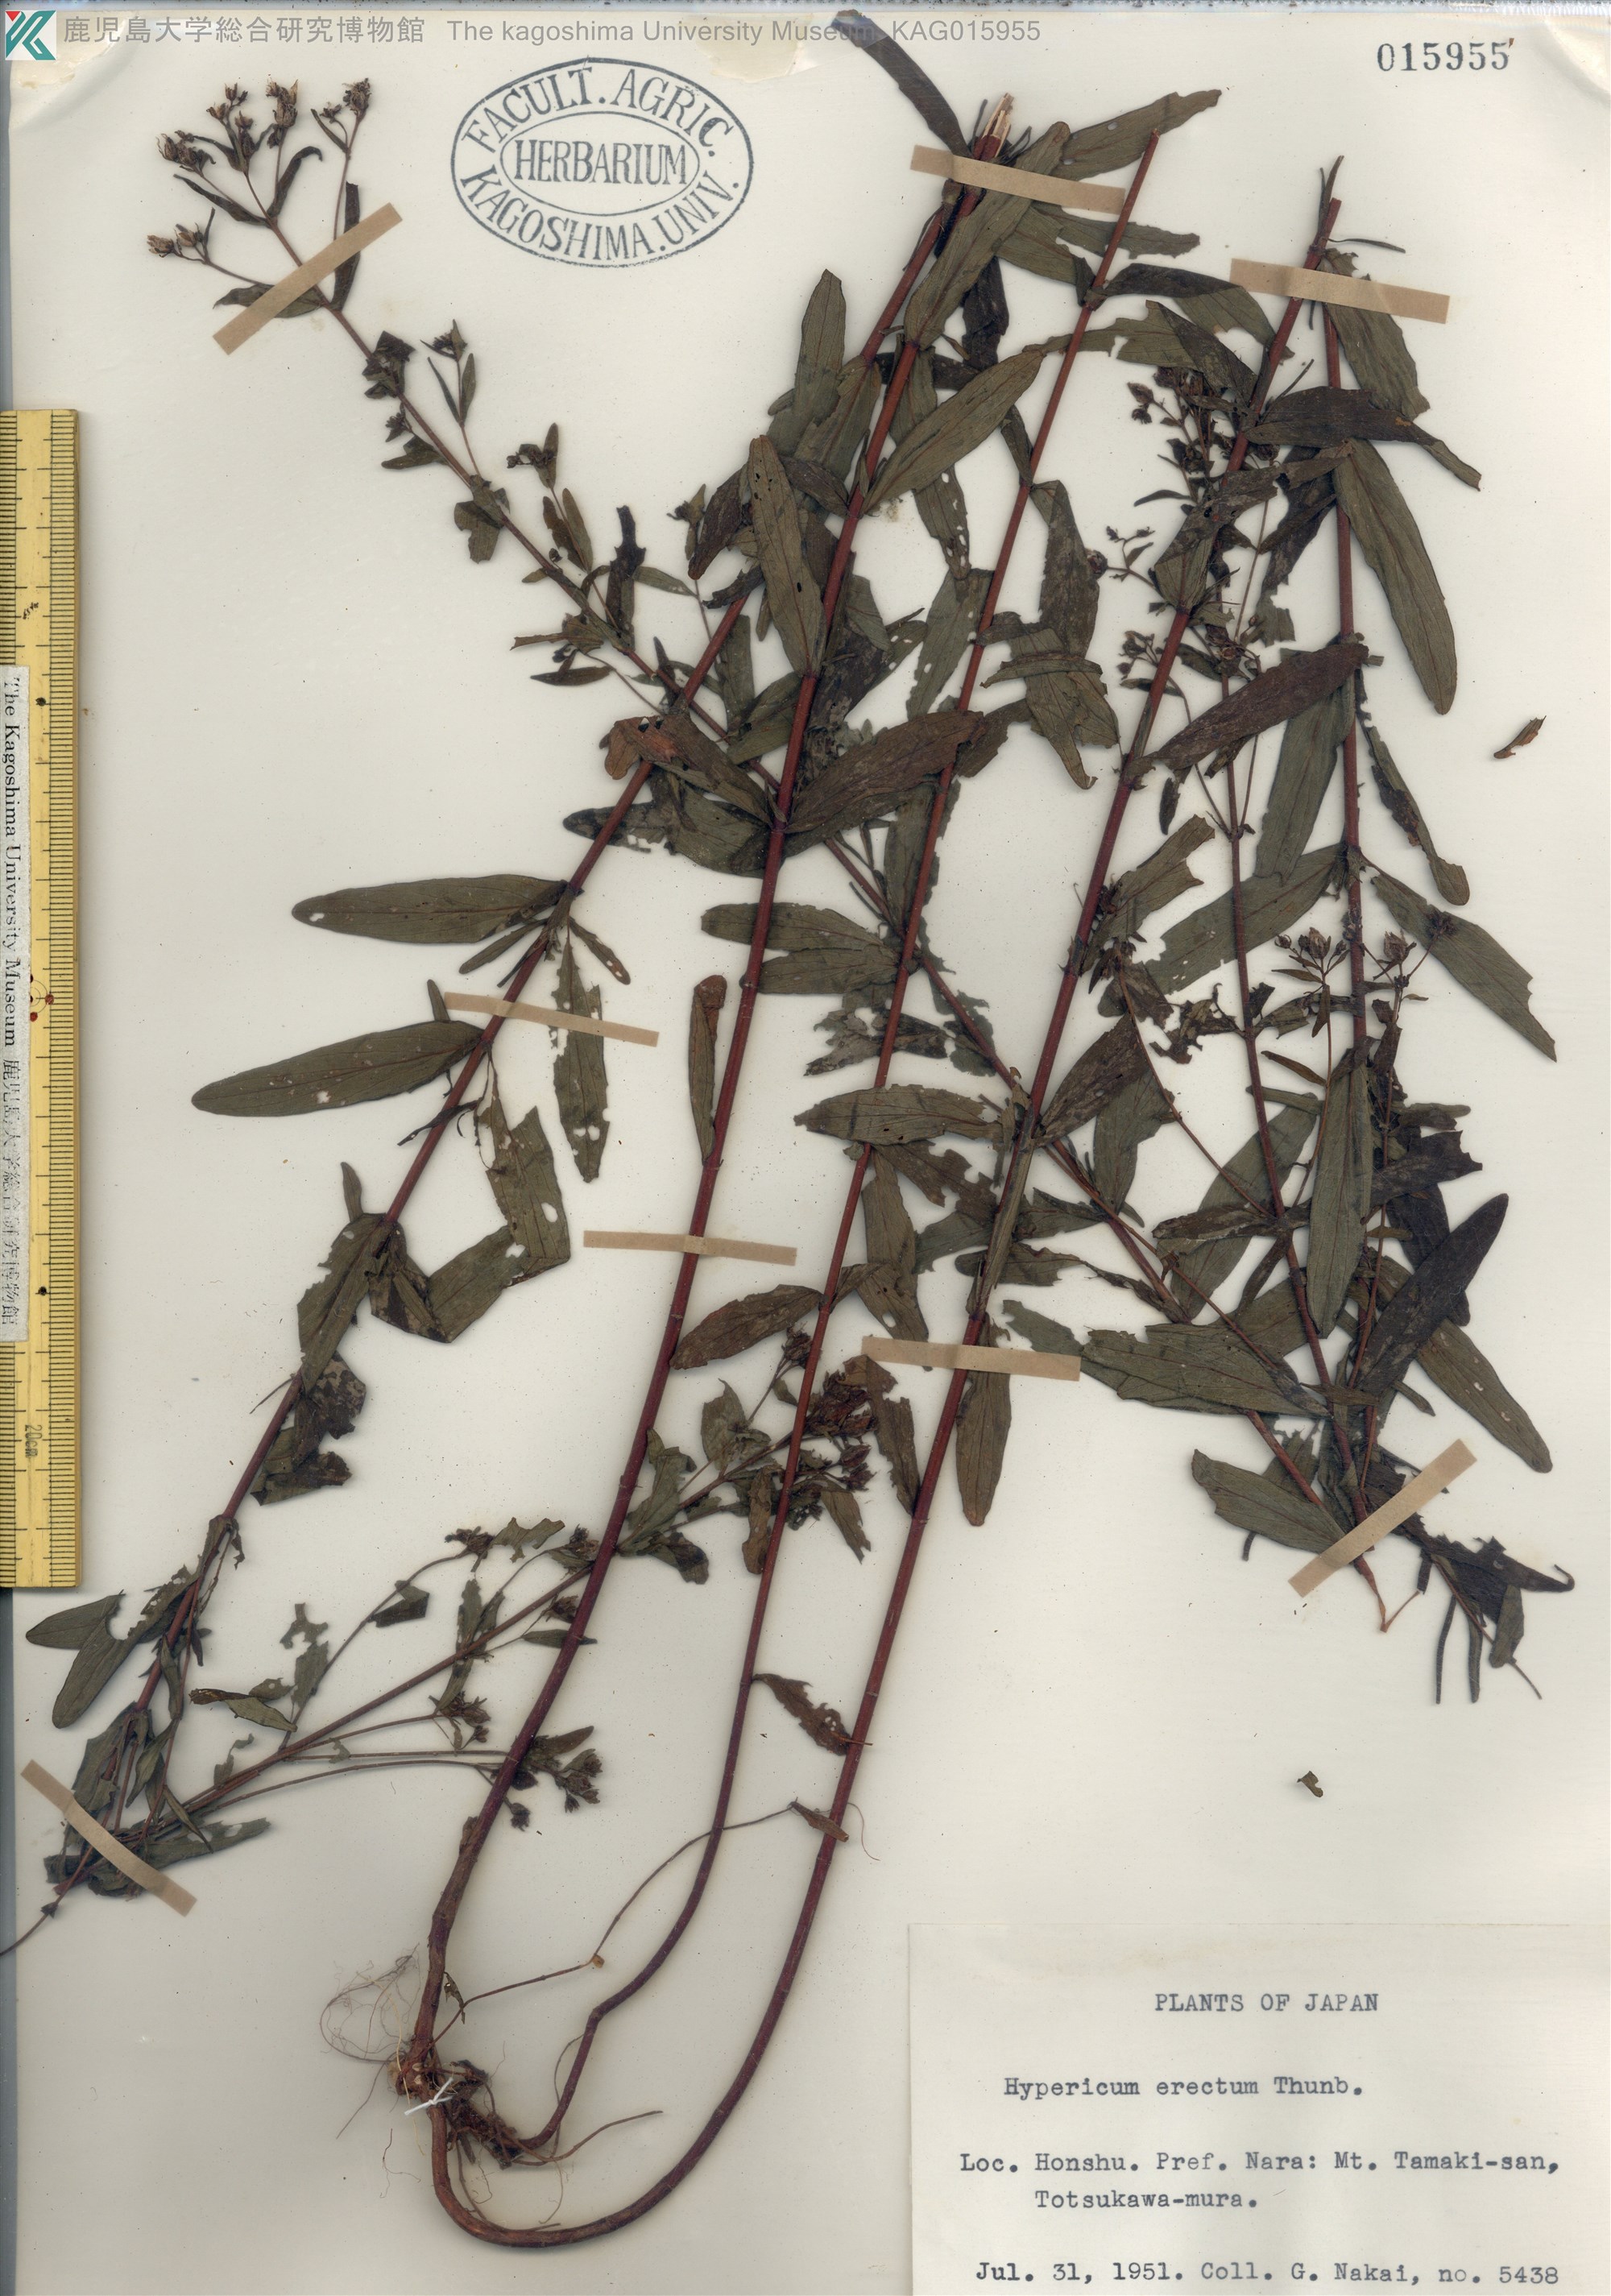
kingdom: Plantae
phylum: Tracheophyta
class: Magnoliopsida
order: Malpighiales
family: Hypericaceae
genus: Hypericum
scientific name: Hypericum erectum
